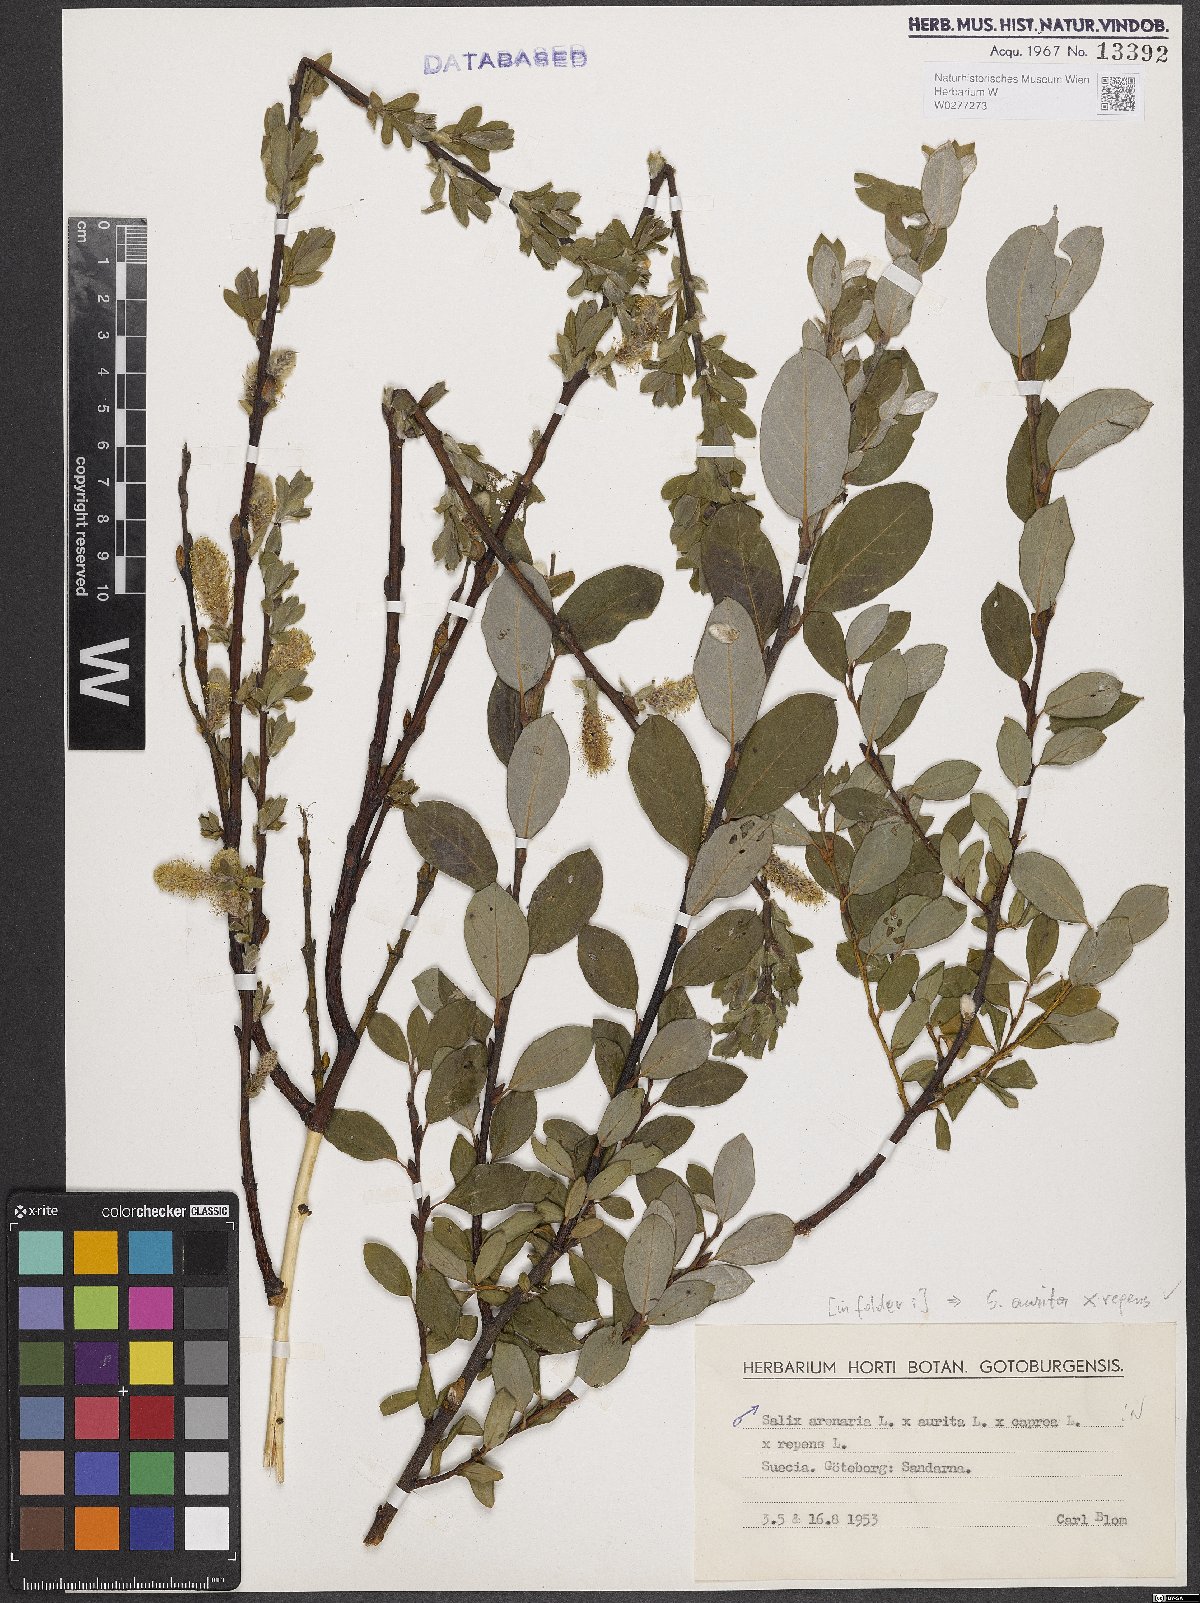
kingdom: Plantae
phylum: Tracheophyta
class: Magnoliopsida
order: Malpighiales
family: Salicaceae
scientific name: Salicaceae
